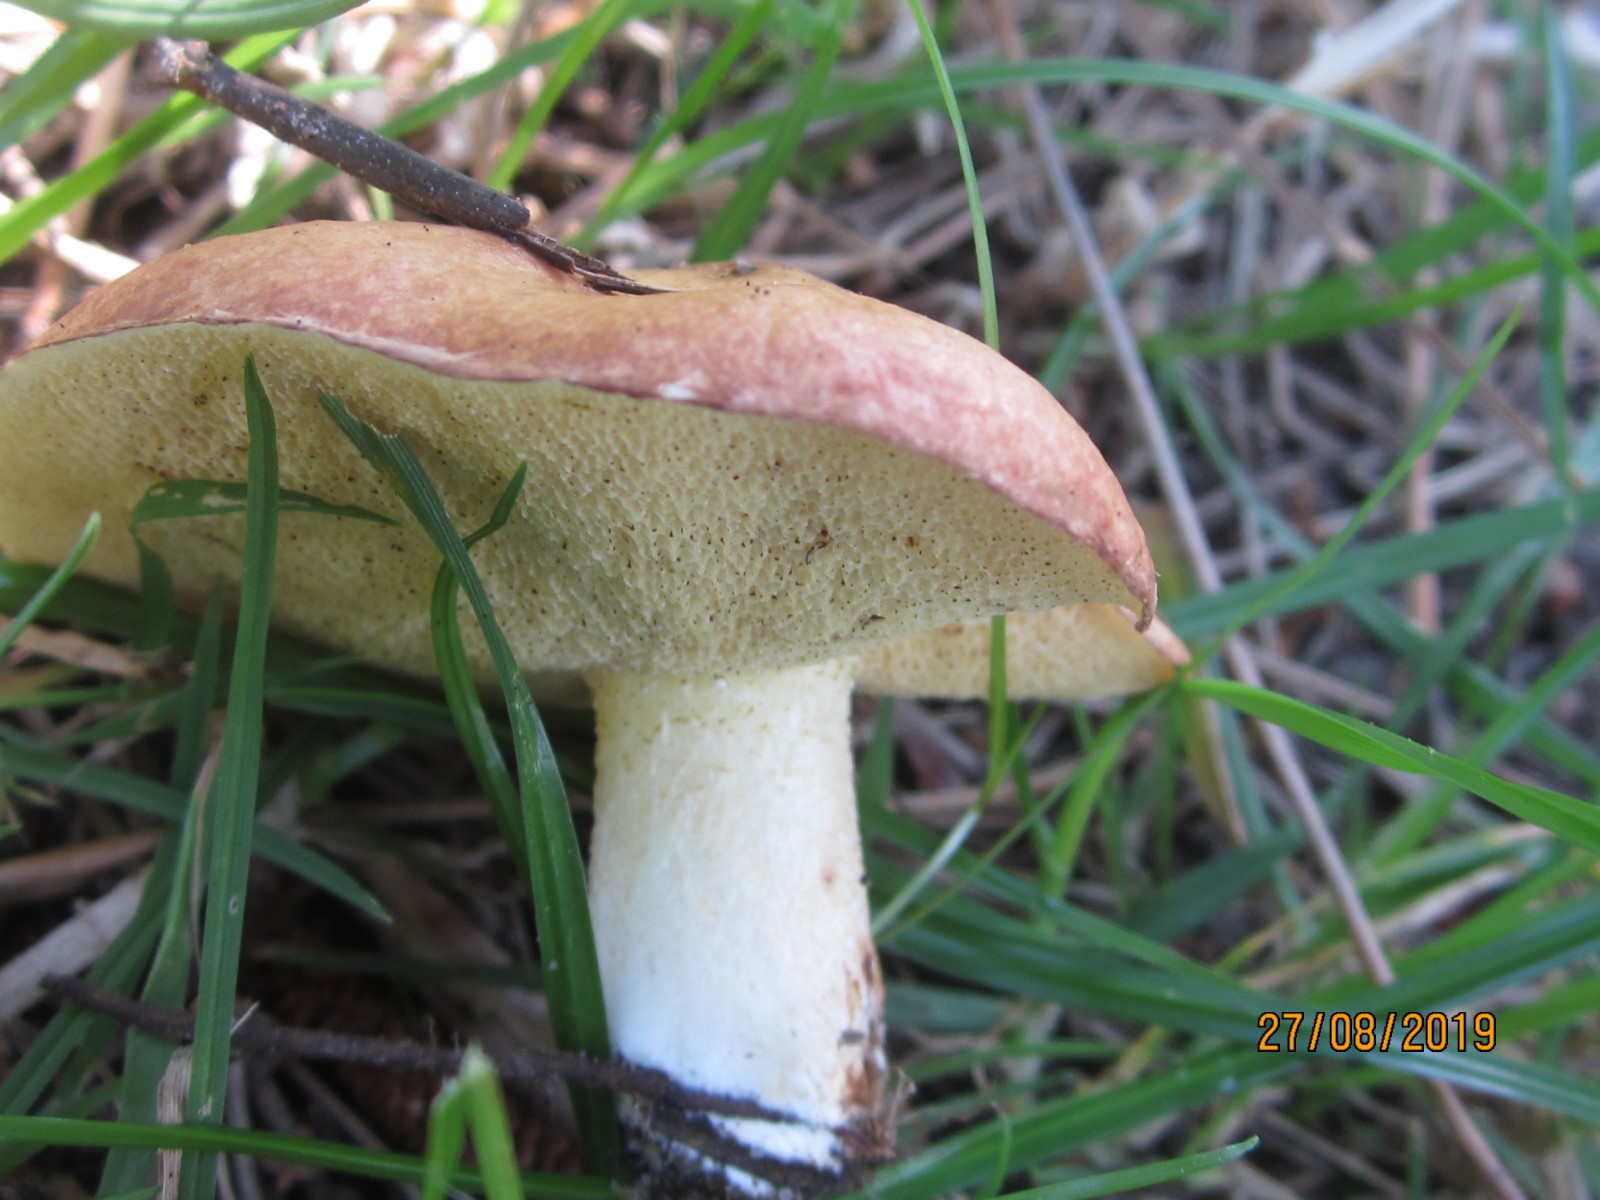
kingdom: Fungi
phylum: Basidiomycota
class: Agaricomycetes
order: Boletales
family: Suillaceae
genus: Suillus
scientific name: Suillus granulatus
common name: kornet slimrørhat
